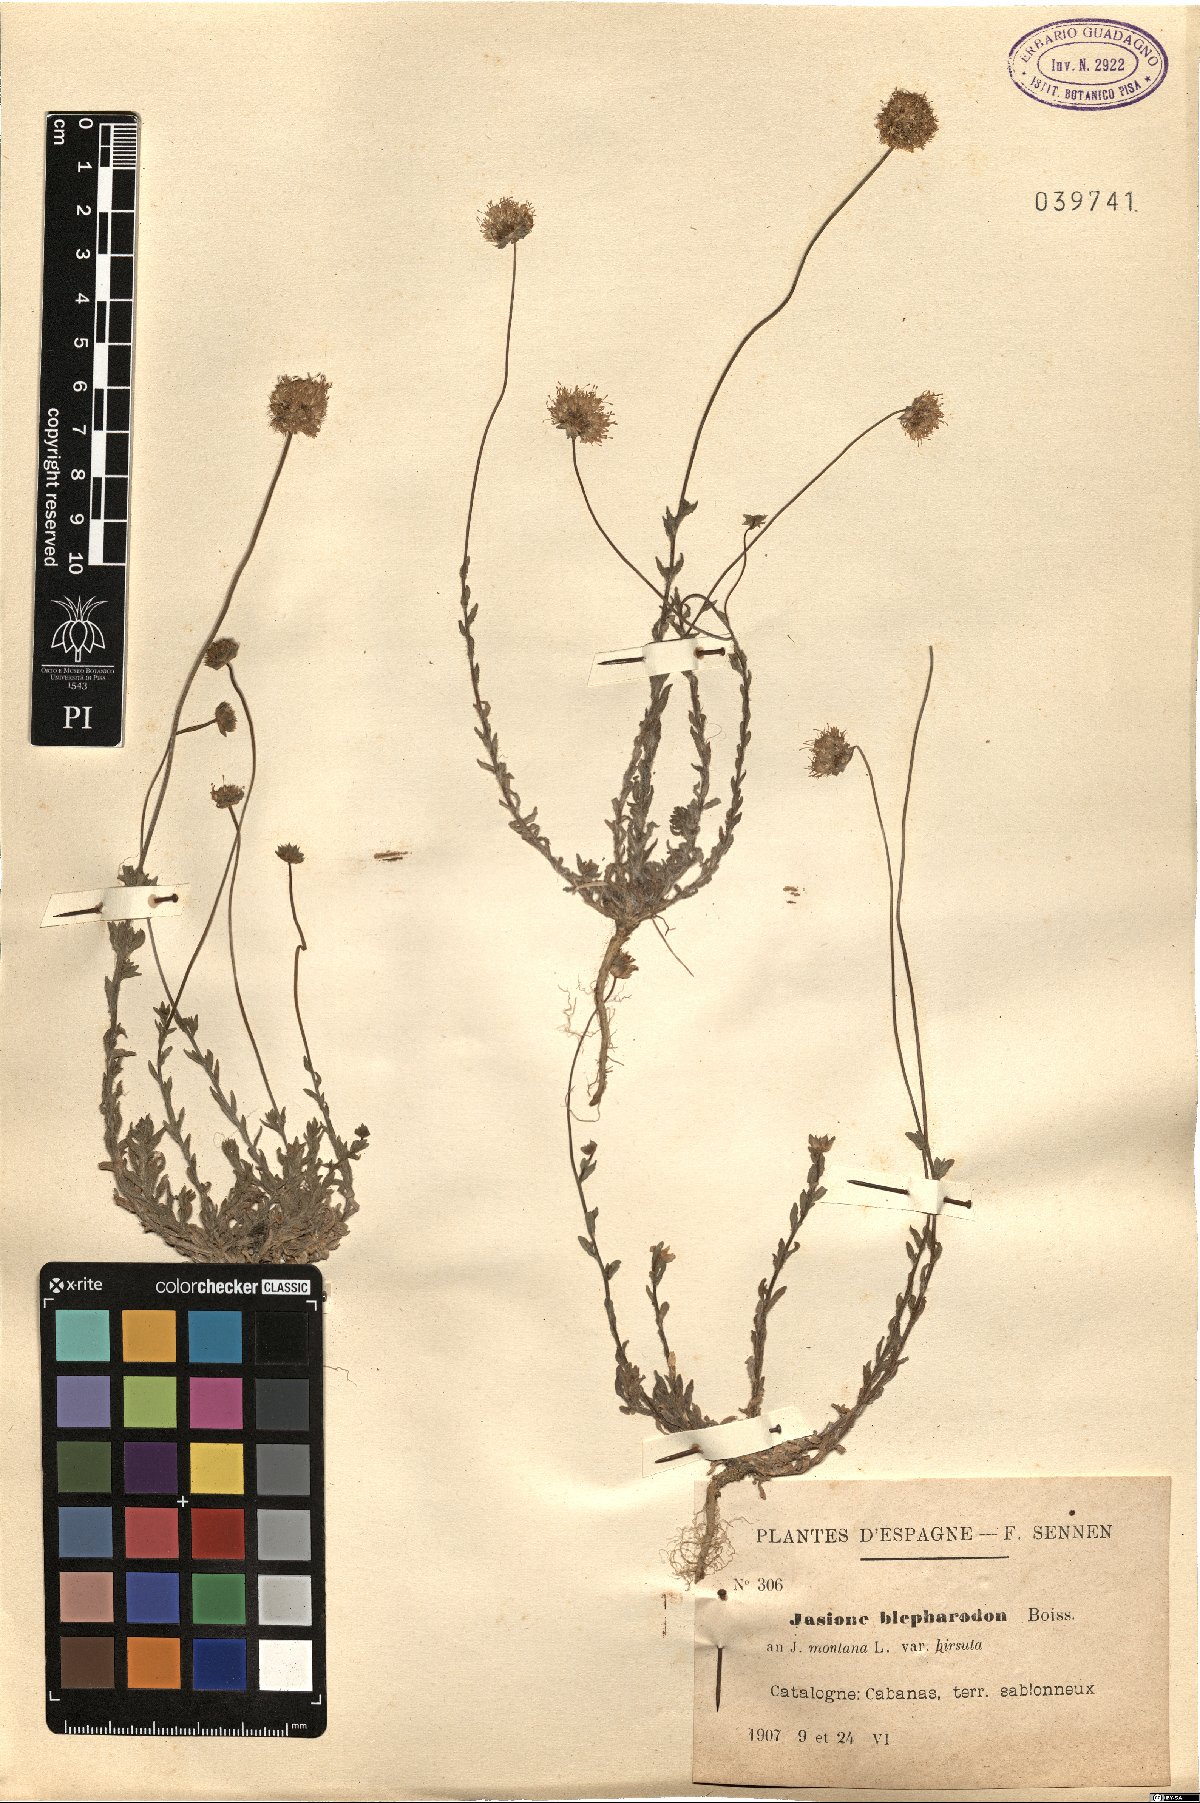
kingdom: Plantae
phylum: Tracheophyta
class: Magnoliopsida
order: Asterales
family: Campanulaceae
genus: Jasione
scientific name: Jasione montana
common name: Sheep's-bit
